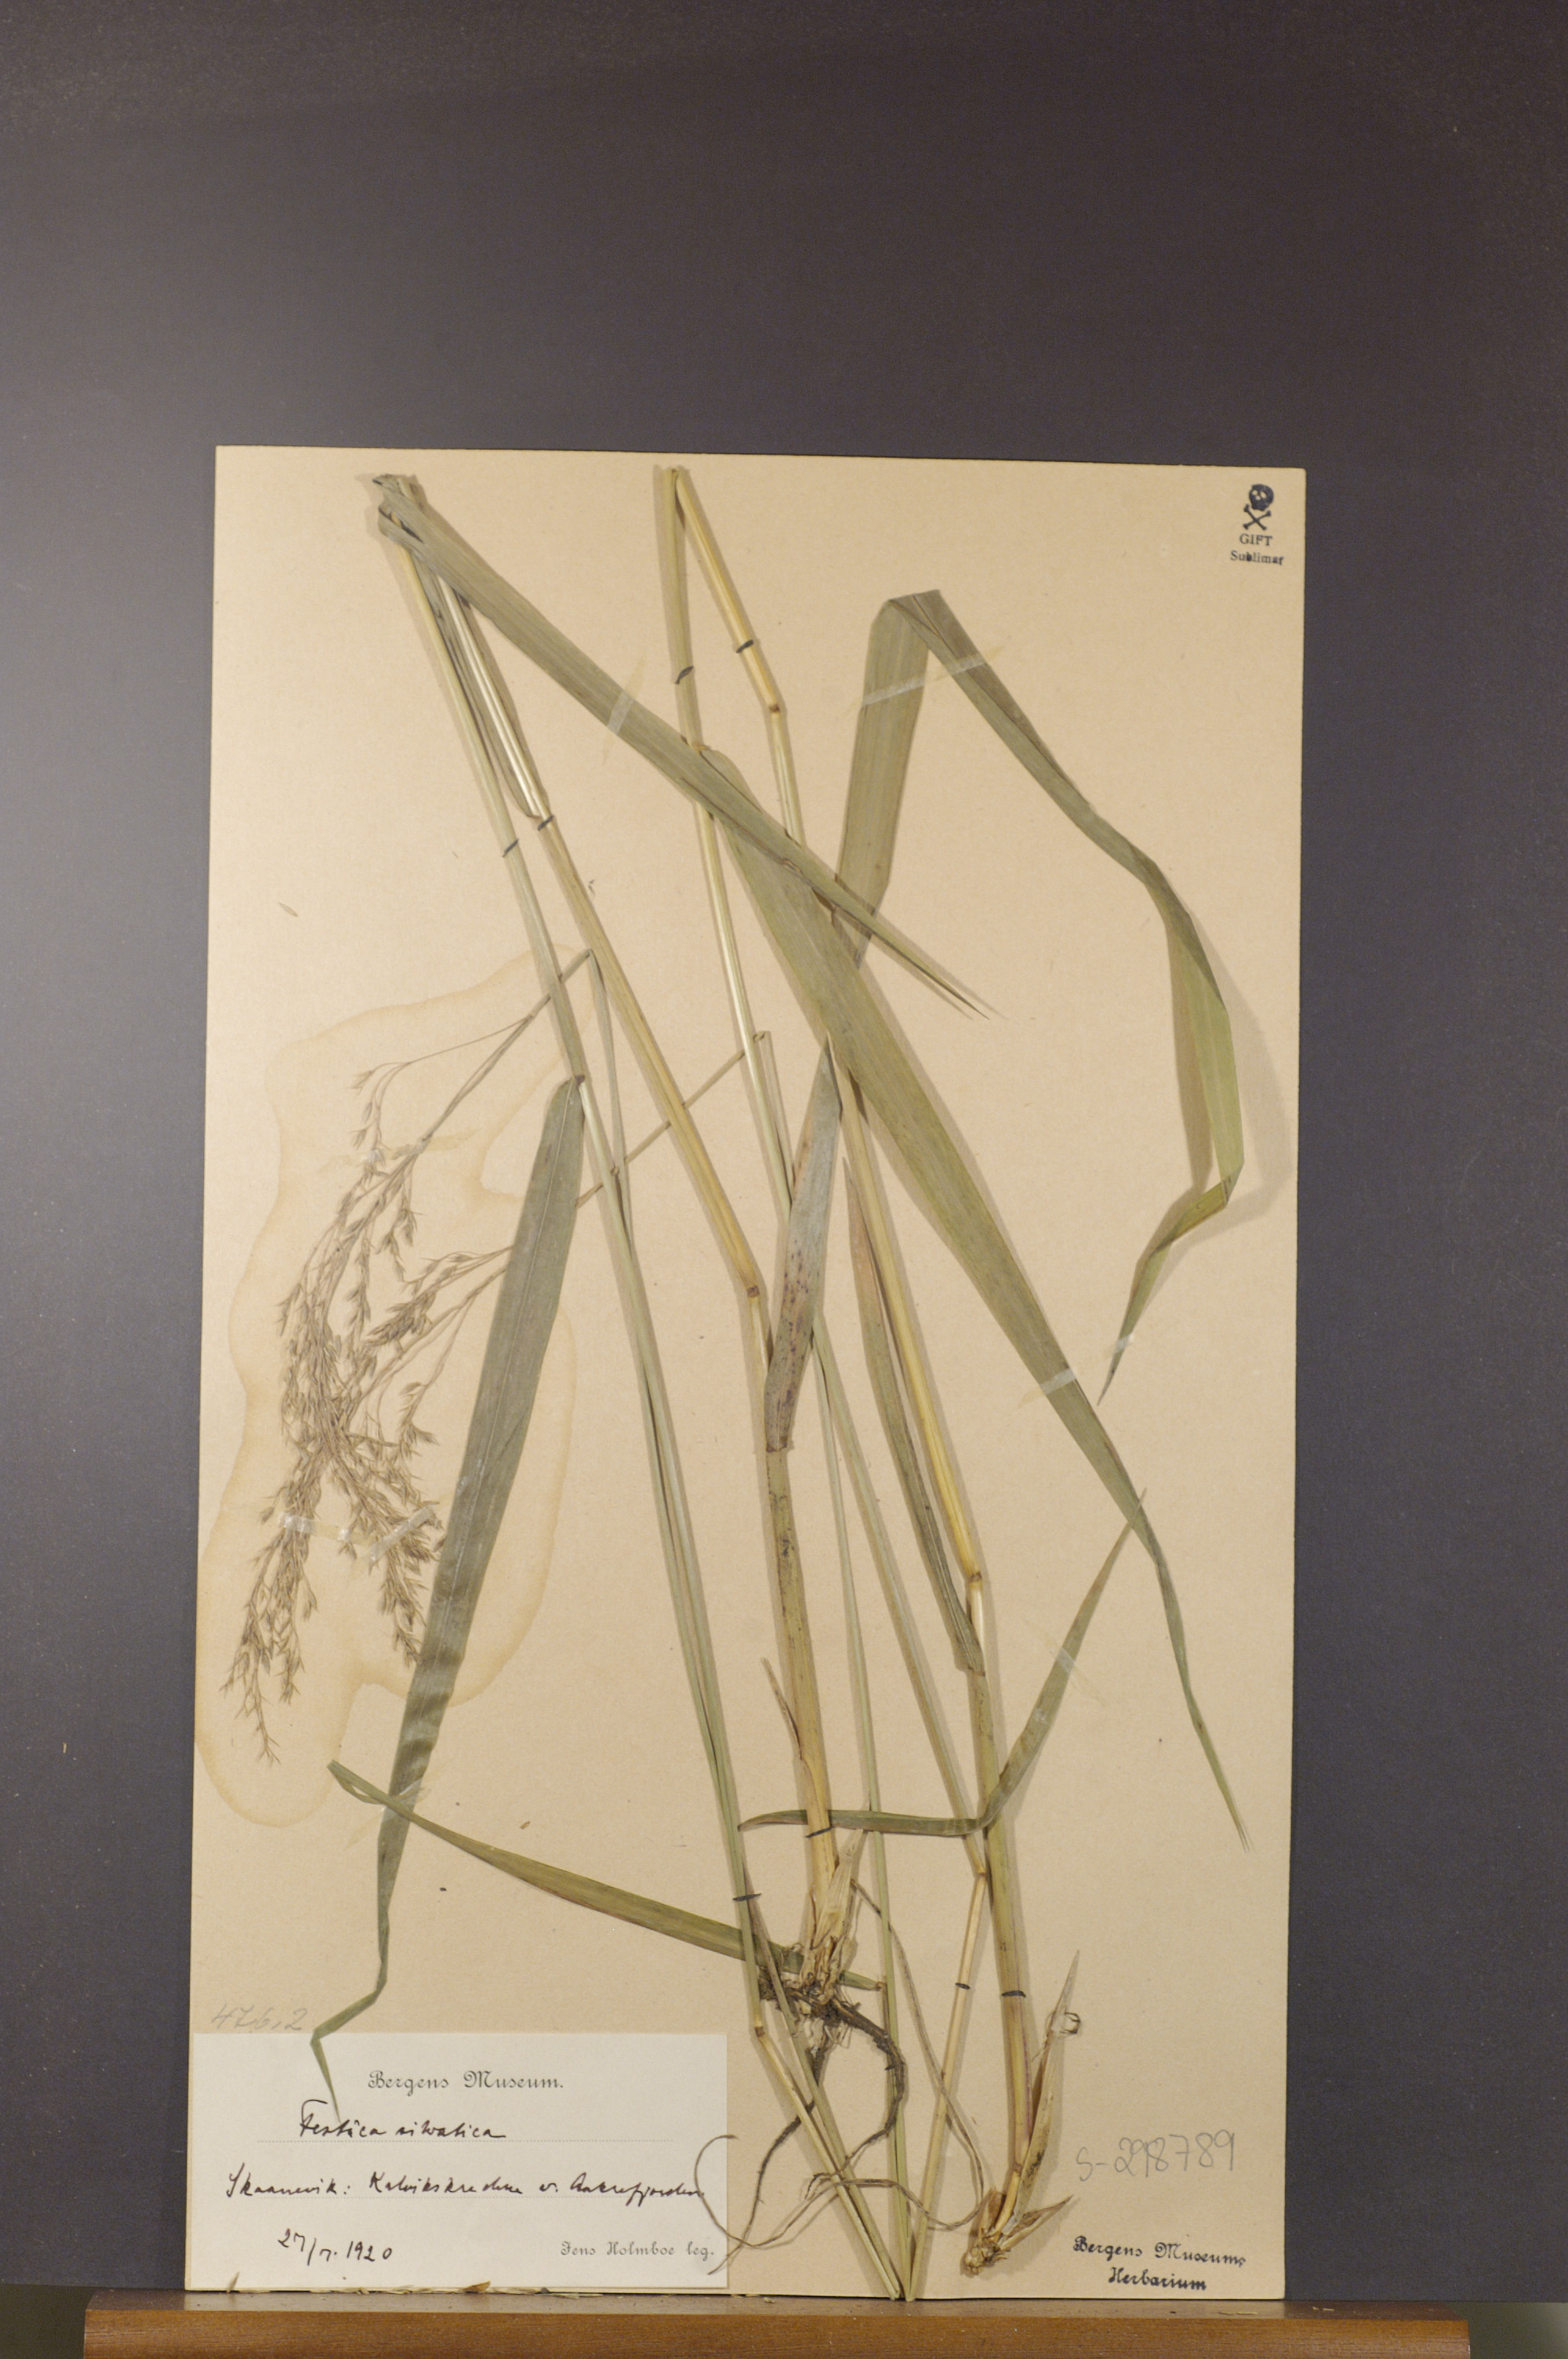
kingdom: Plantae
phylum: Tracheophyta
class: Liliopsida
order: Poales
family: Poaceae
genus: Festuca
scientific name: Festuca altissima
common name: Wood fescue
